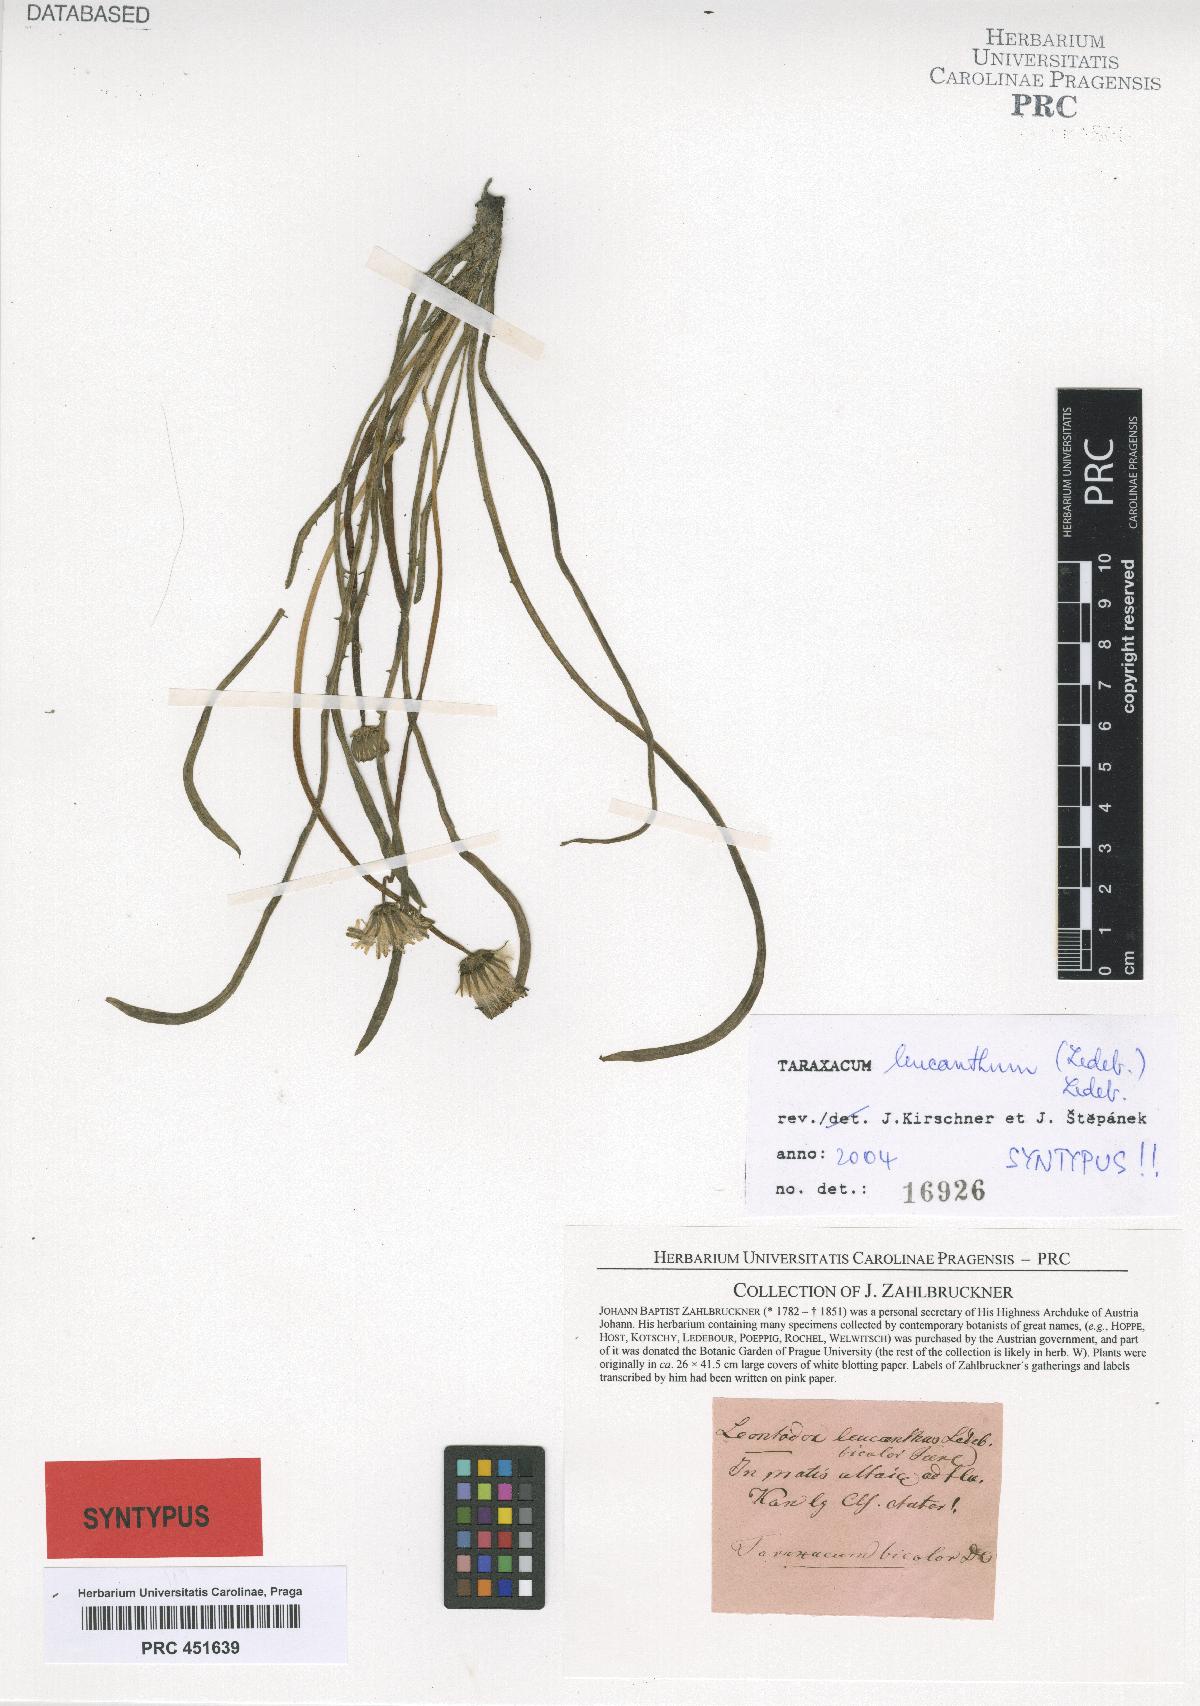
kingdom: Plantae
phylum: Tracheophyta
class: Magnoliopsida
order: Asterales
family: Asteraceae
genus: Taraxacum
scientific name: Taraxacum leucanthum
